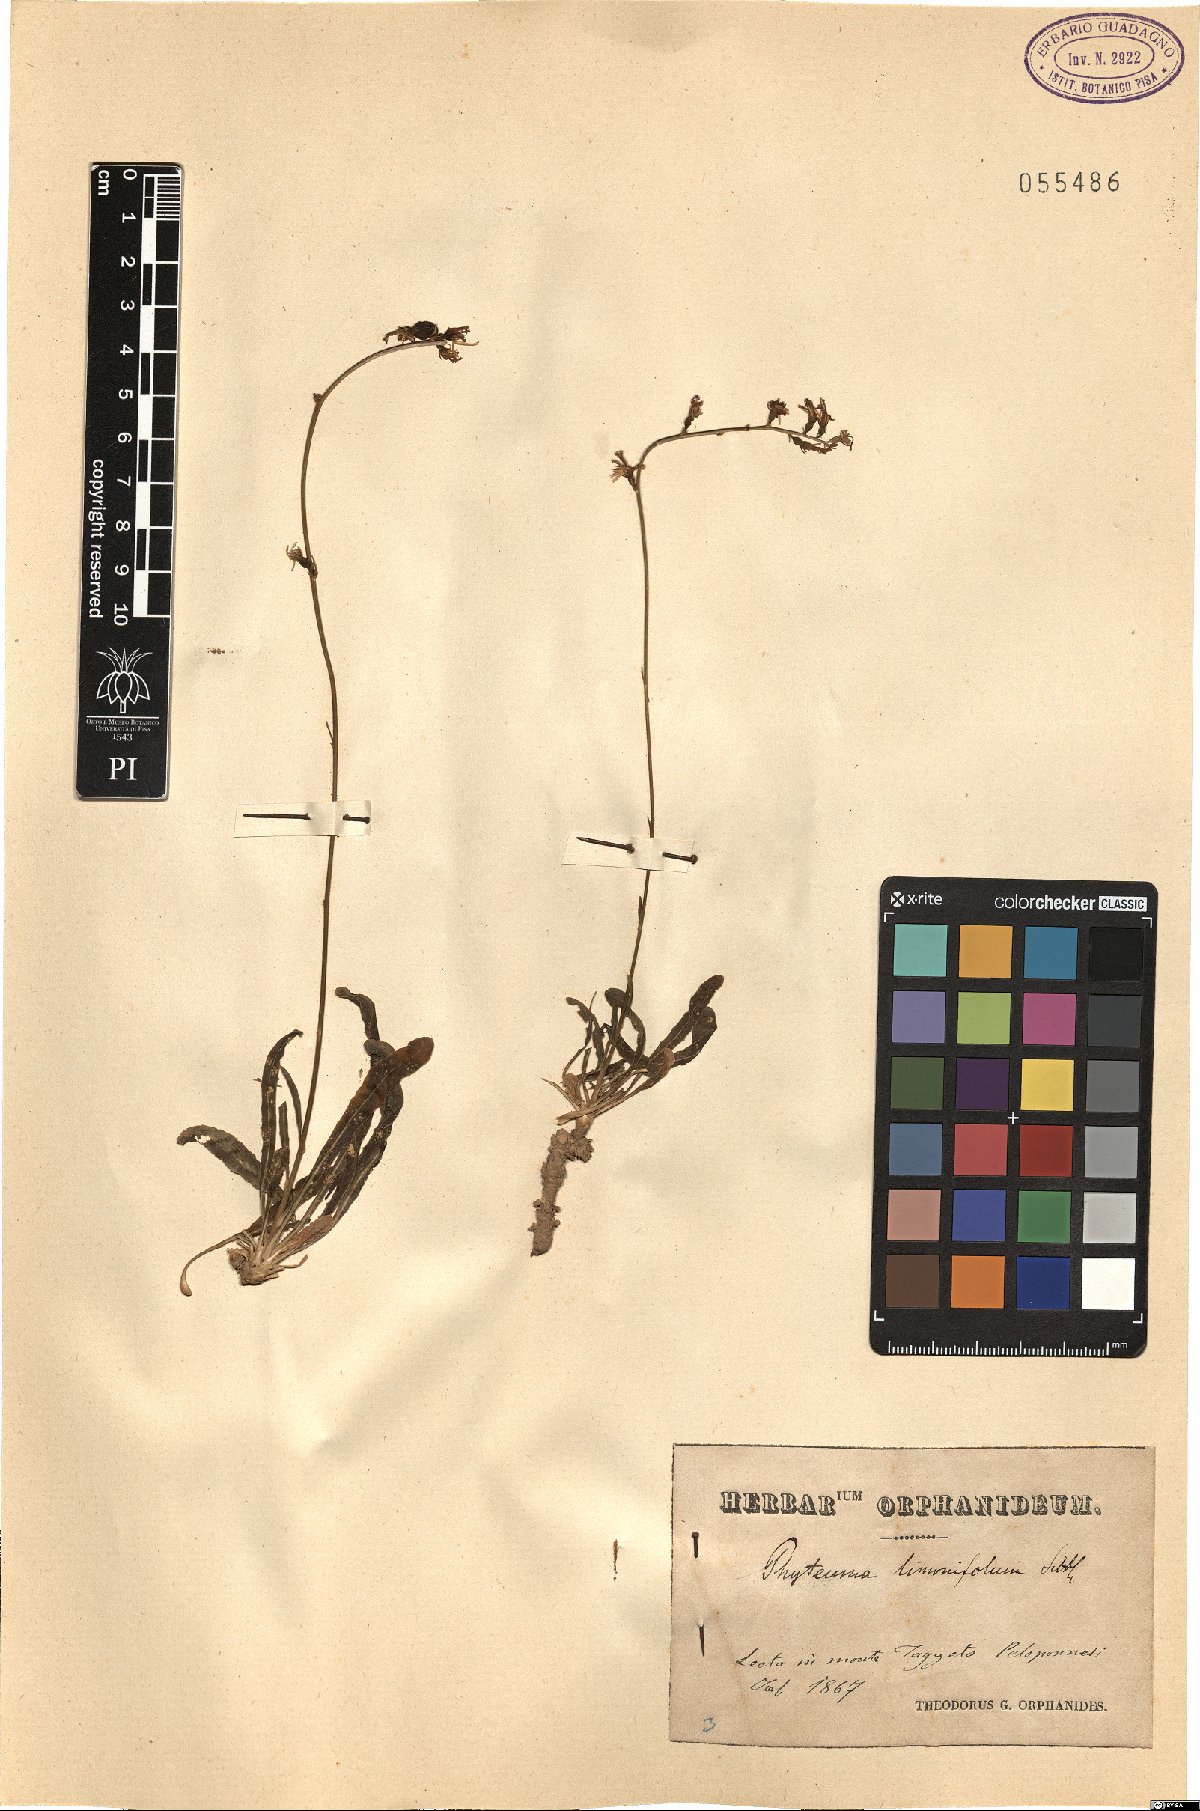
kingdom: Plantae
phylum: Tracheophyta
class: Magnoliopsida
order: Asterales
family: Campanulaceae
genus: Asyneuma
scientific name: Asyneuma limonifolium
